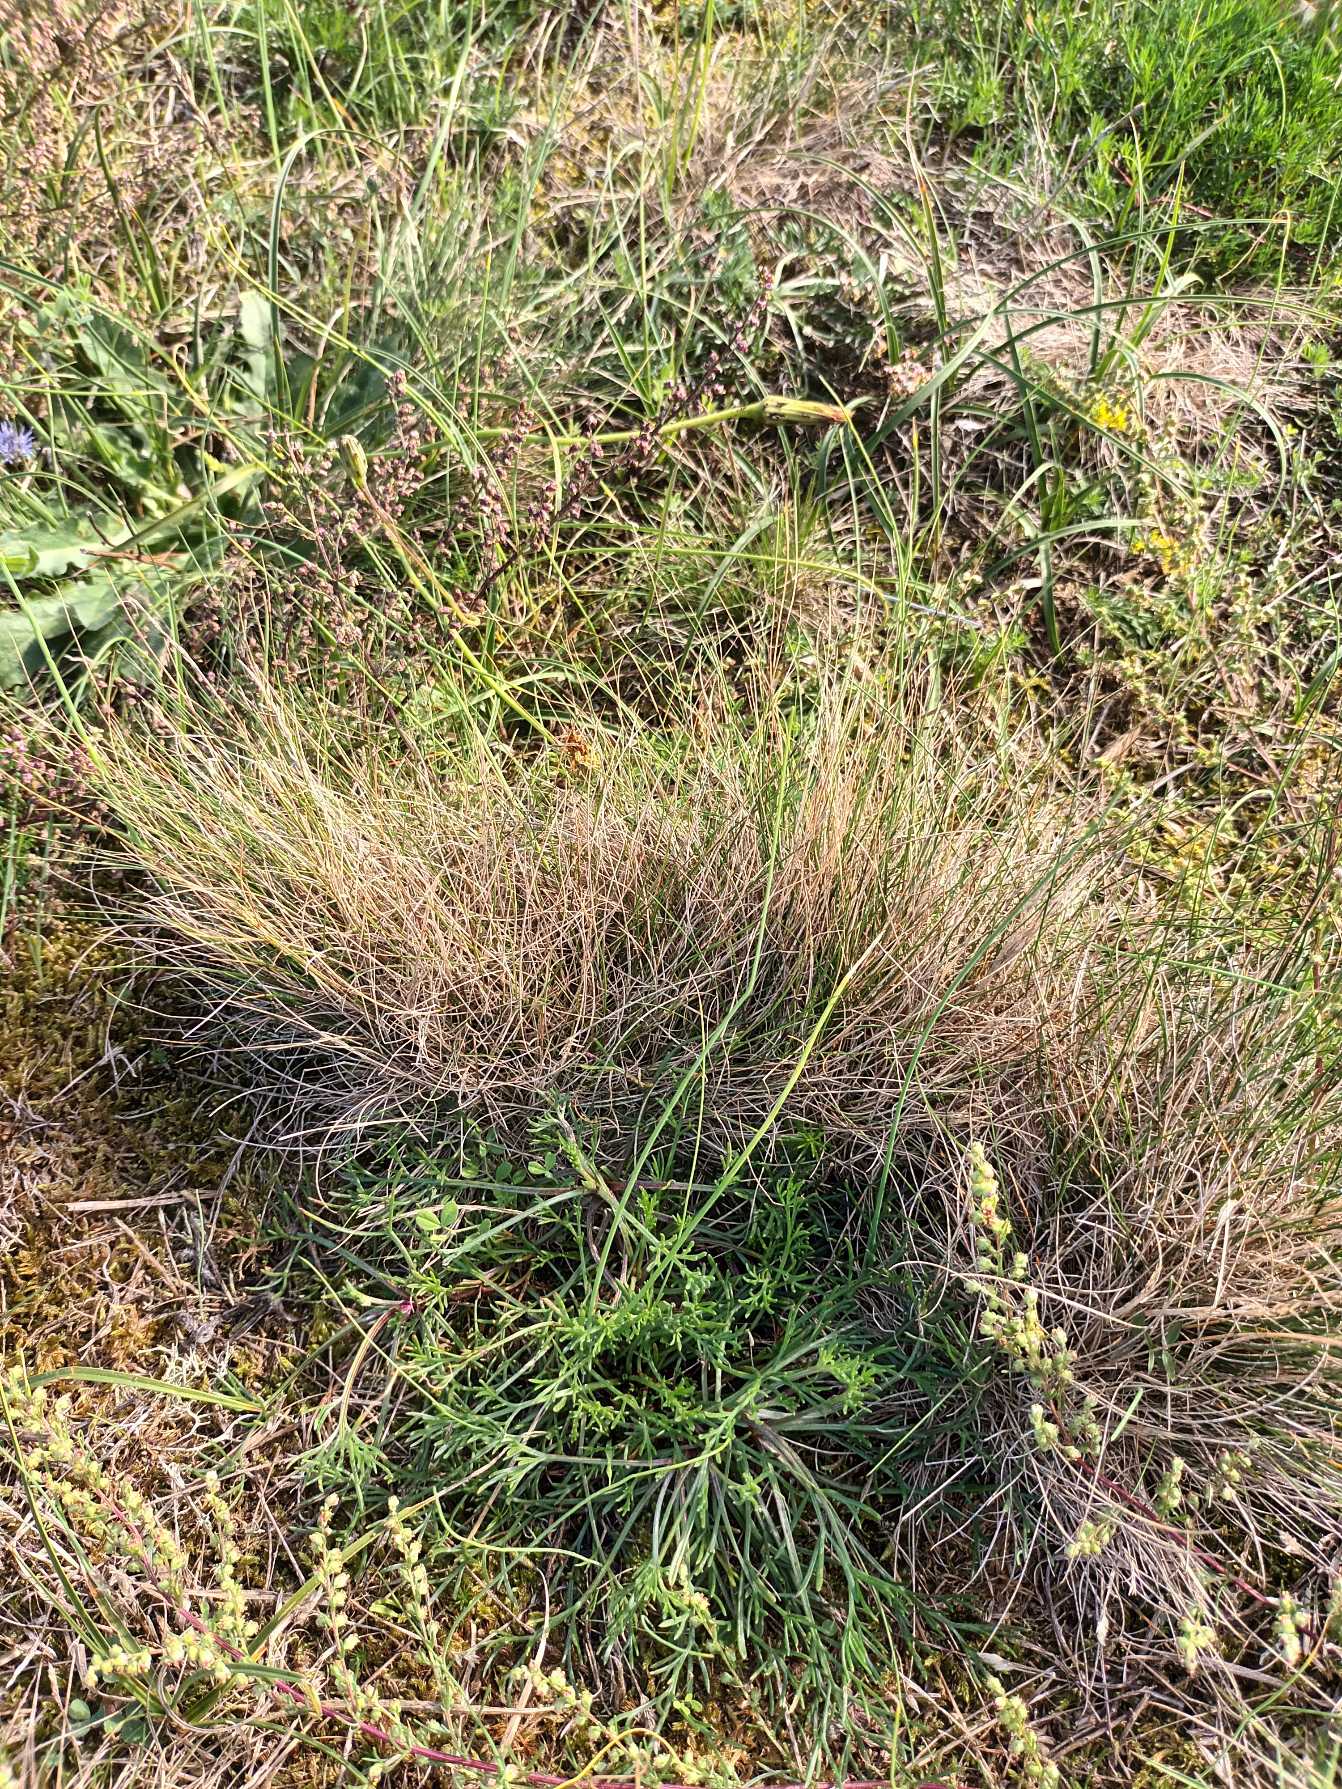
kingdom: Plantae
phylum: Tracheophyta
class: Liliopsida
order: Poales
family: Poaceae
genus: Festuca
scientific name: Festuca ovina
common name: Fåre-svingel
